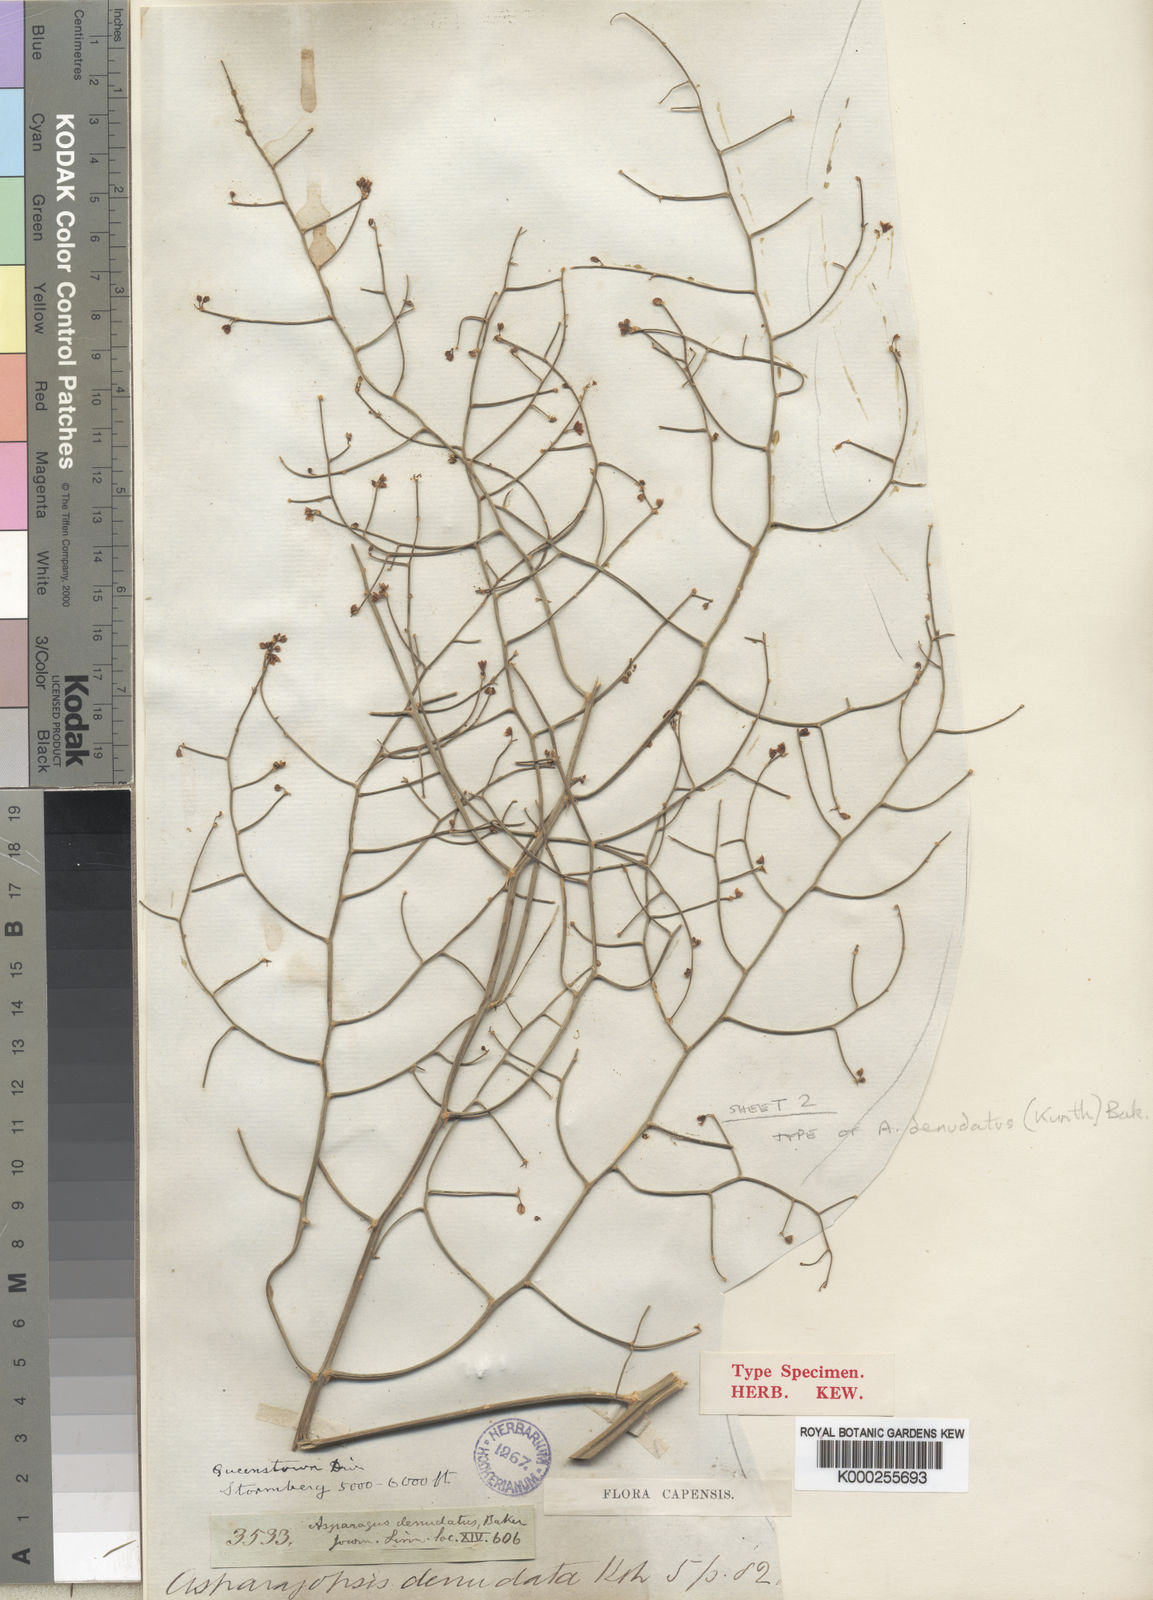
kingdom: Plantae
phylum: Tracheophyta
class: Liliopsida
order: Asparagales
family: Asparagaceae
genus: Asparagus
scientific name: Asparagus denudatus
